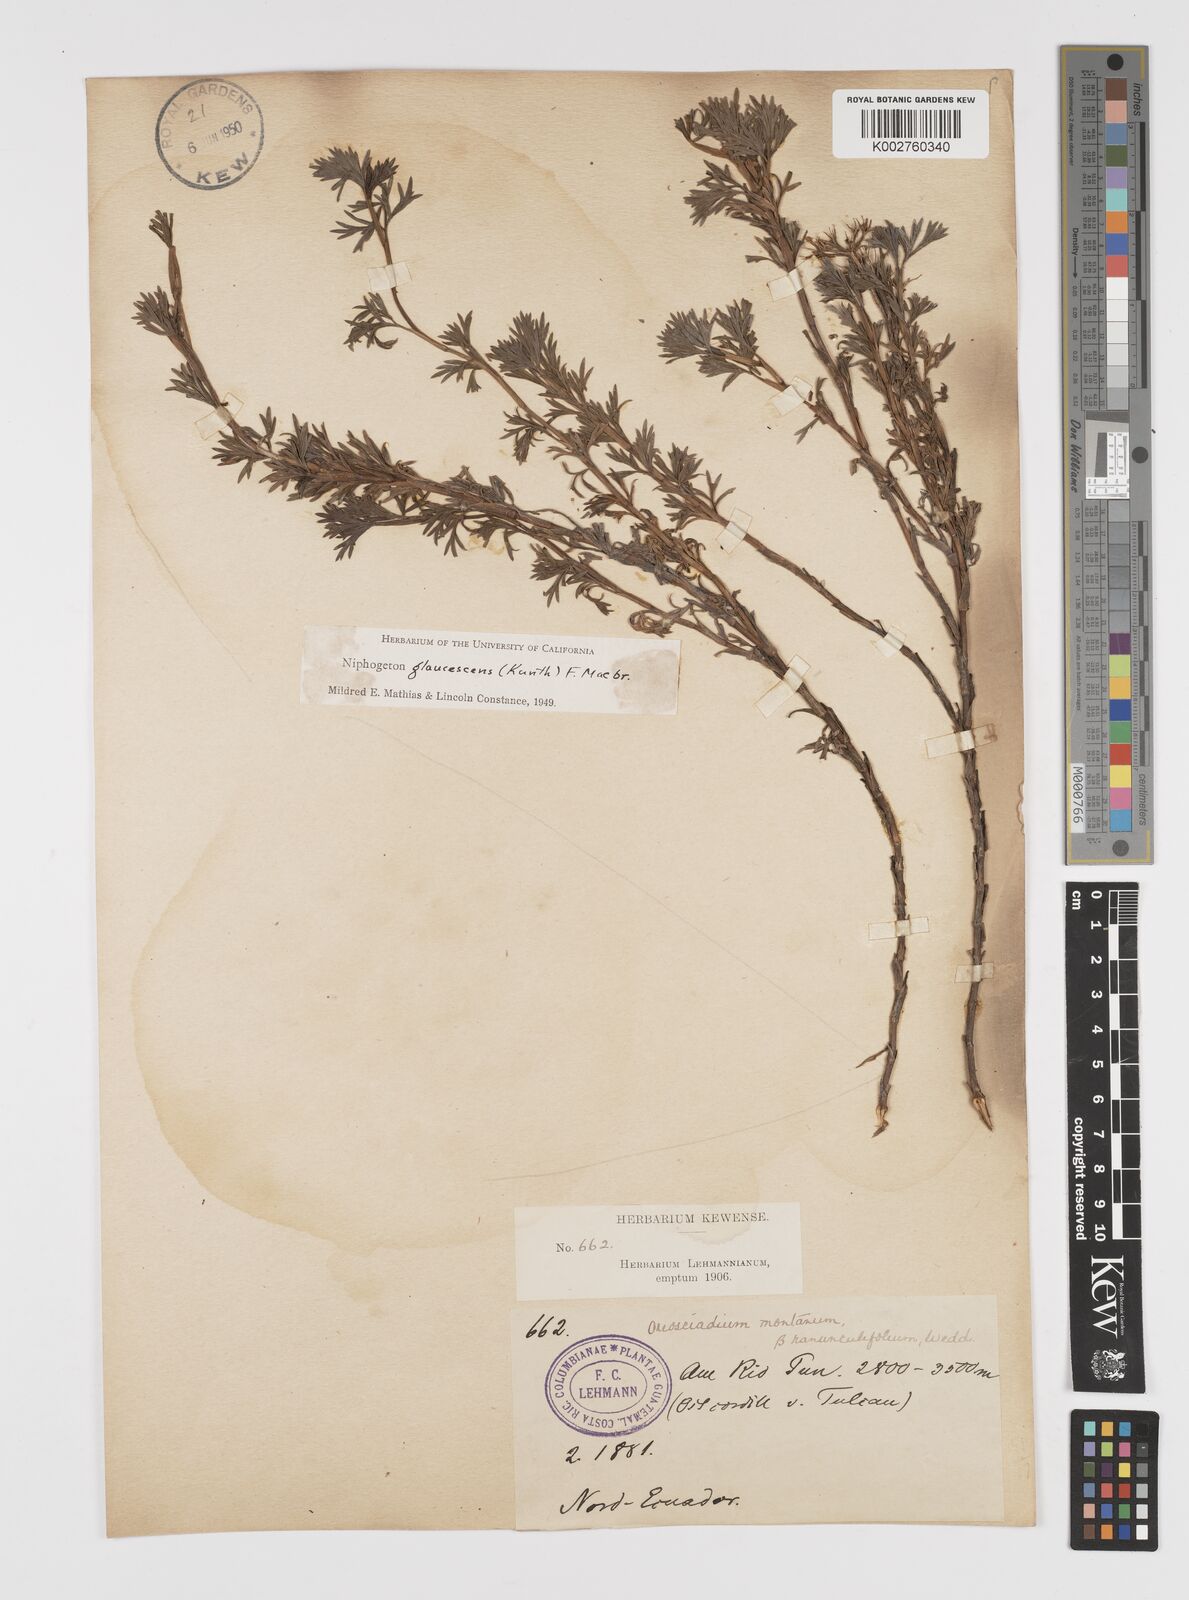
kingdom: Plantae
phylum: Tracheophyta
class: Magnoliopsida
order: Apiales
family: Apiaceae
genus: Niphogeton
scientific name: Niphogeton glaucescens
